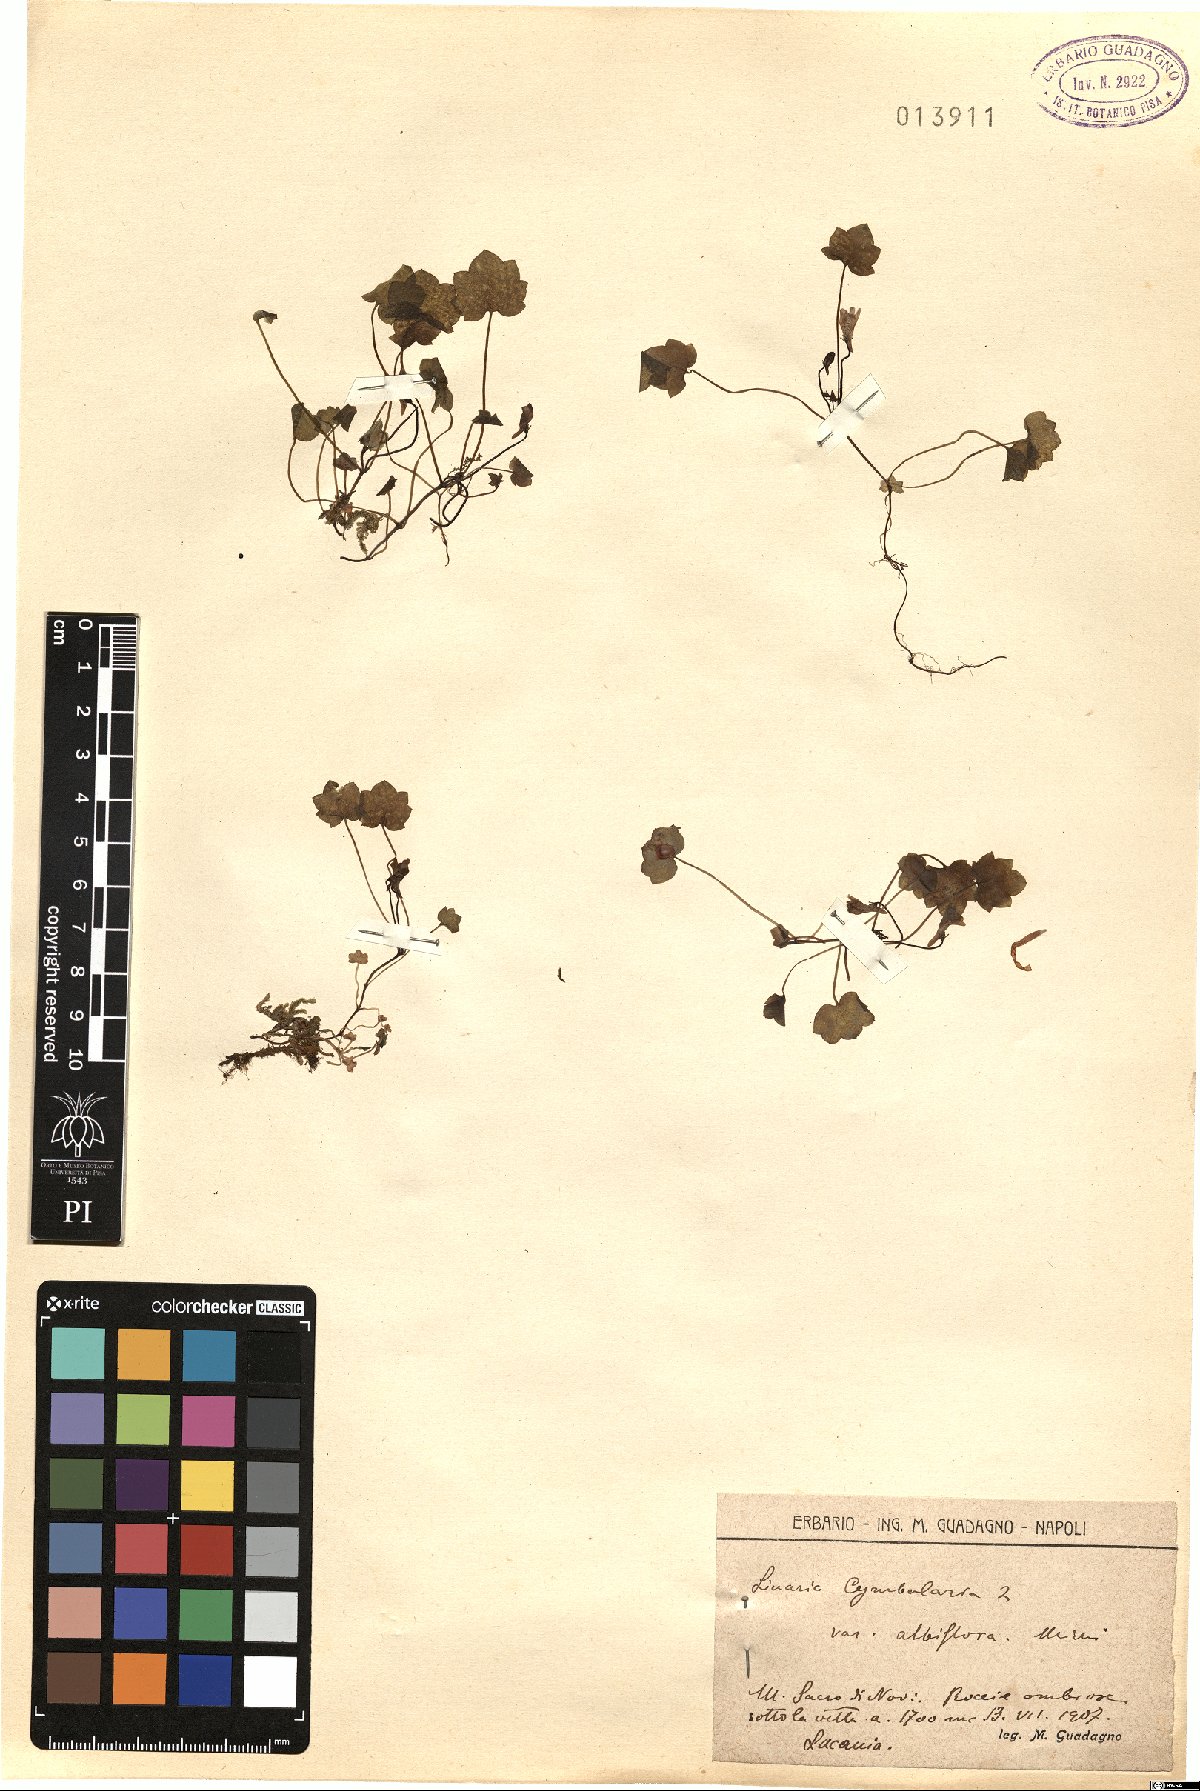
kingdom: Plantae
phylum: Tracheophyta
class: Magnoliopsida
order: Lamiales
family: Plantaginaceae
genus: Cymbalaria
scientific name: Cymbalaria muralis
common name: Ivy-leaved toadflax
